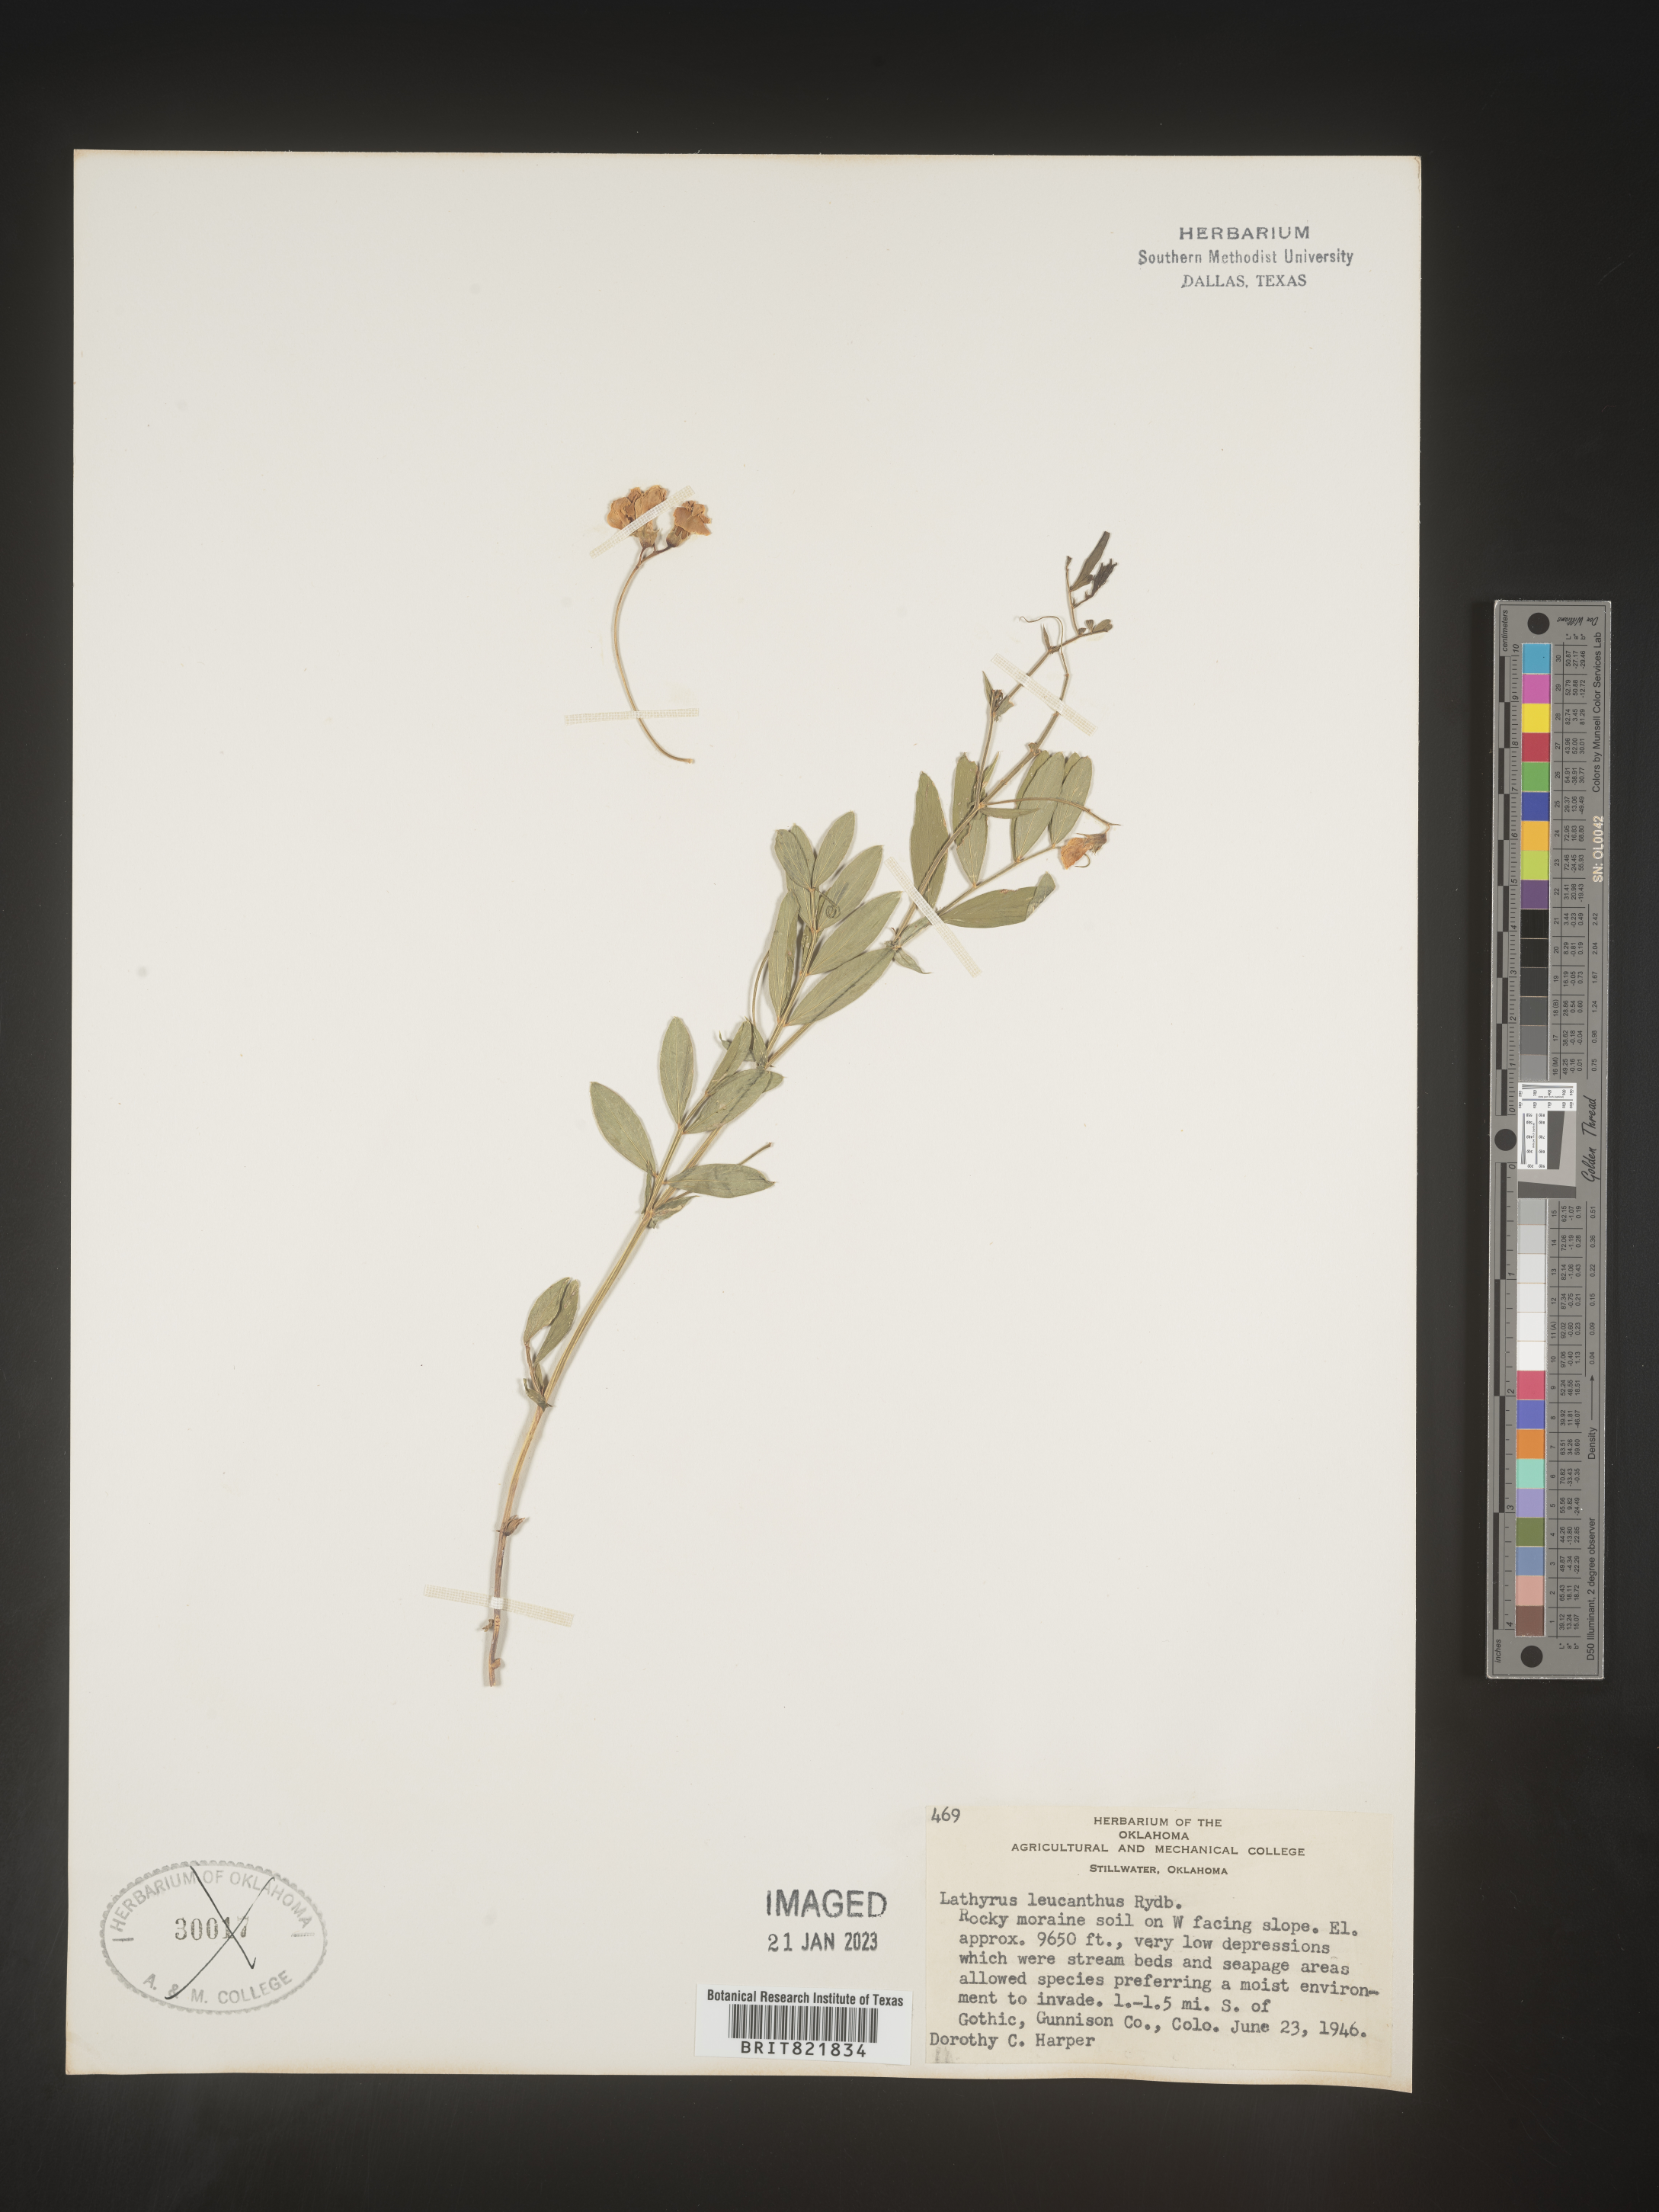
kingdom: Plantae
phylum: Tracheophyta
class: Magnoliopsida
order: Fabales
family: Fabaceae
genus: Lathyrus
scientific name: Lathyrus
